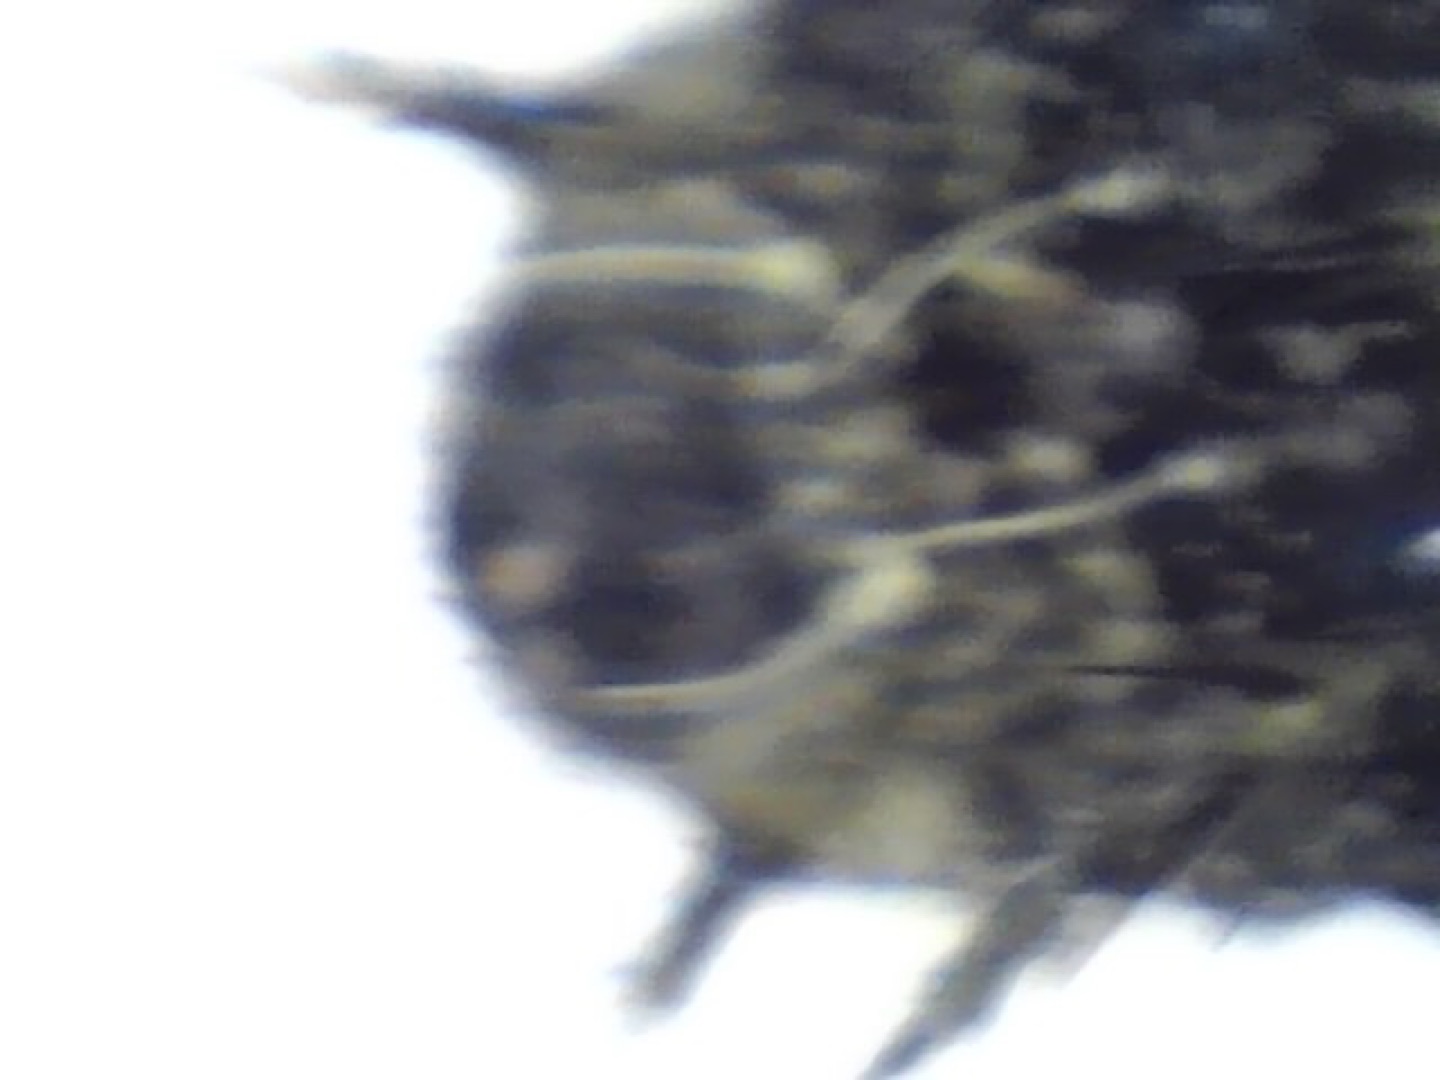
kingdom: Animalia
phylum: Arthropoda
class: Insecta
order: Lepidoptera
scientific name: Lepidoptera
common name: Sommerfugle
